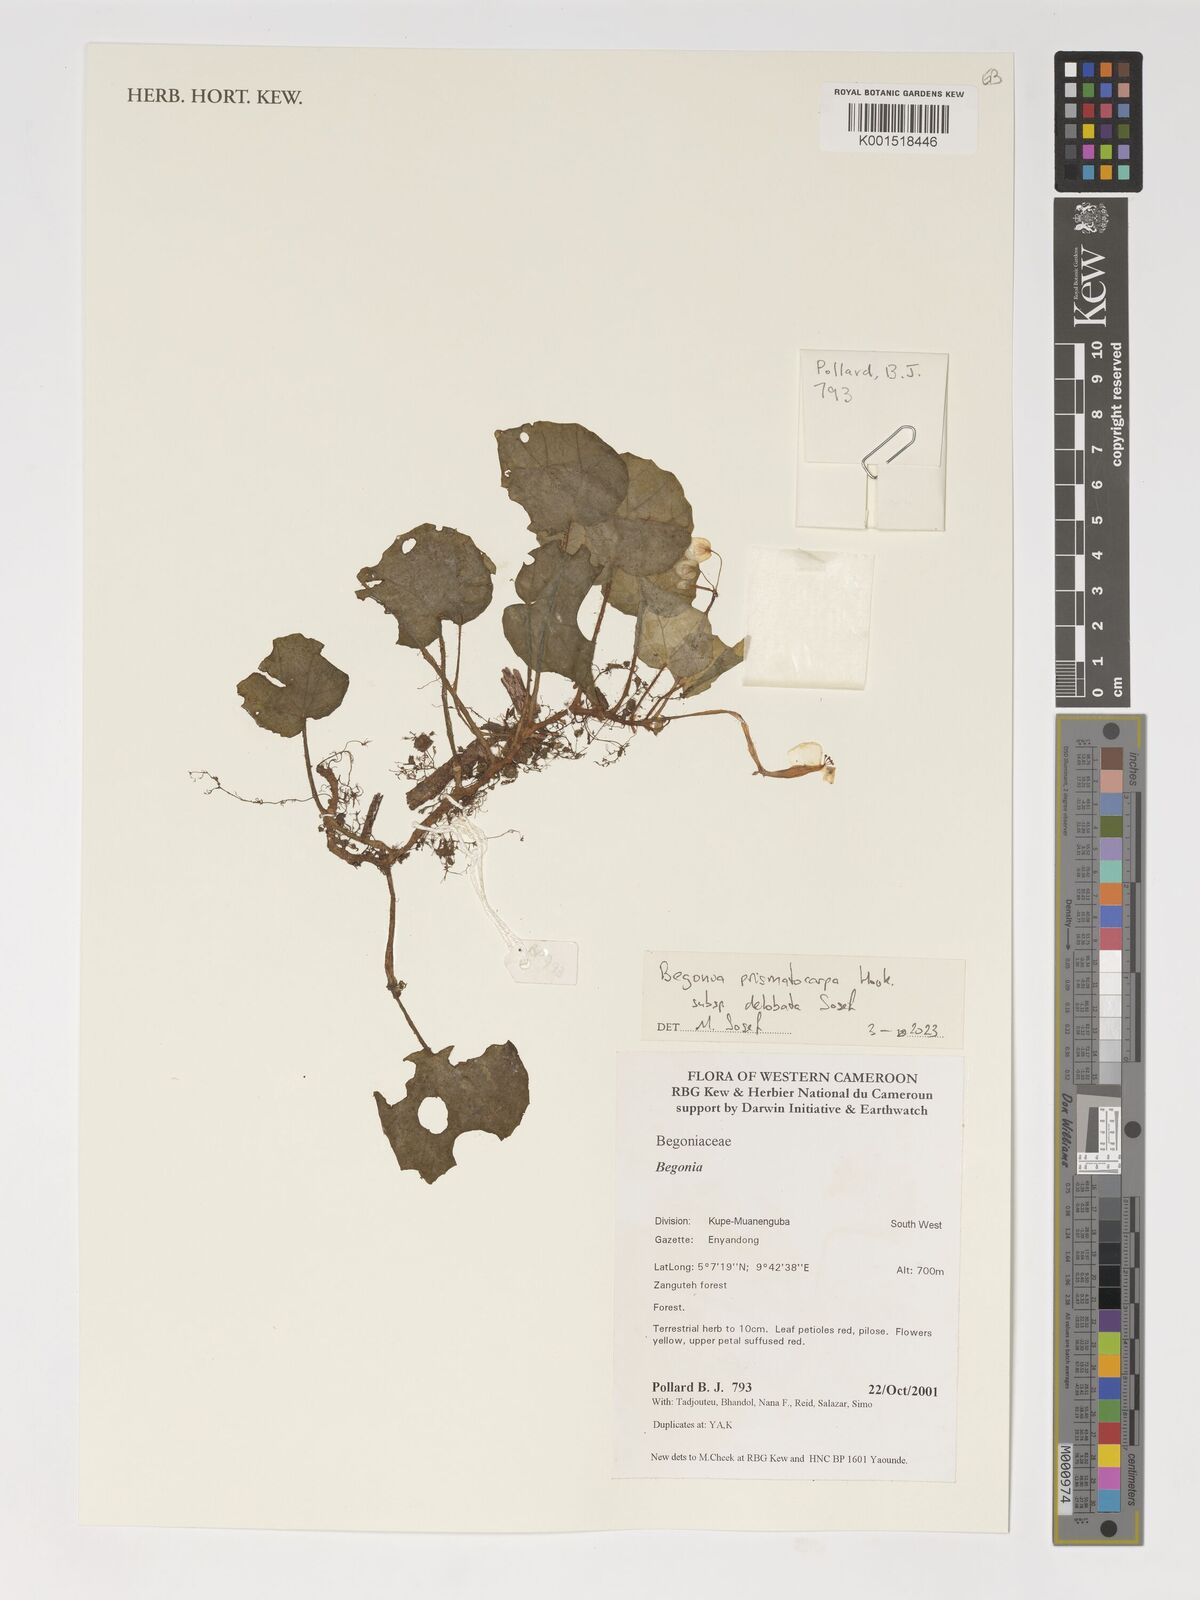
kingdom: Plantae
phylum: Tracheophyta
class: Magnoliopsida
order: Cucurbitales
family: Begoniaceae
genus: Begonia
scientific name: Begonia prismatocarpa
